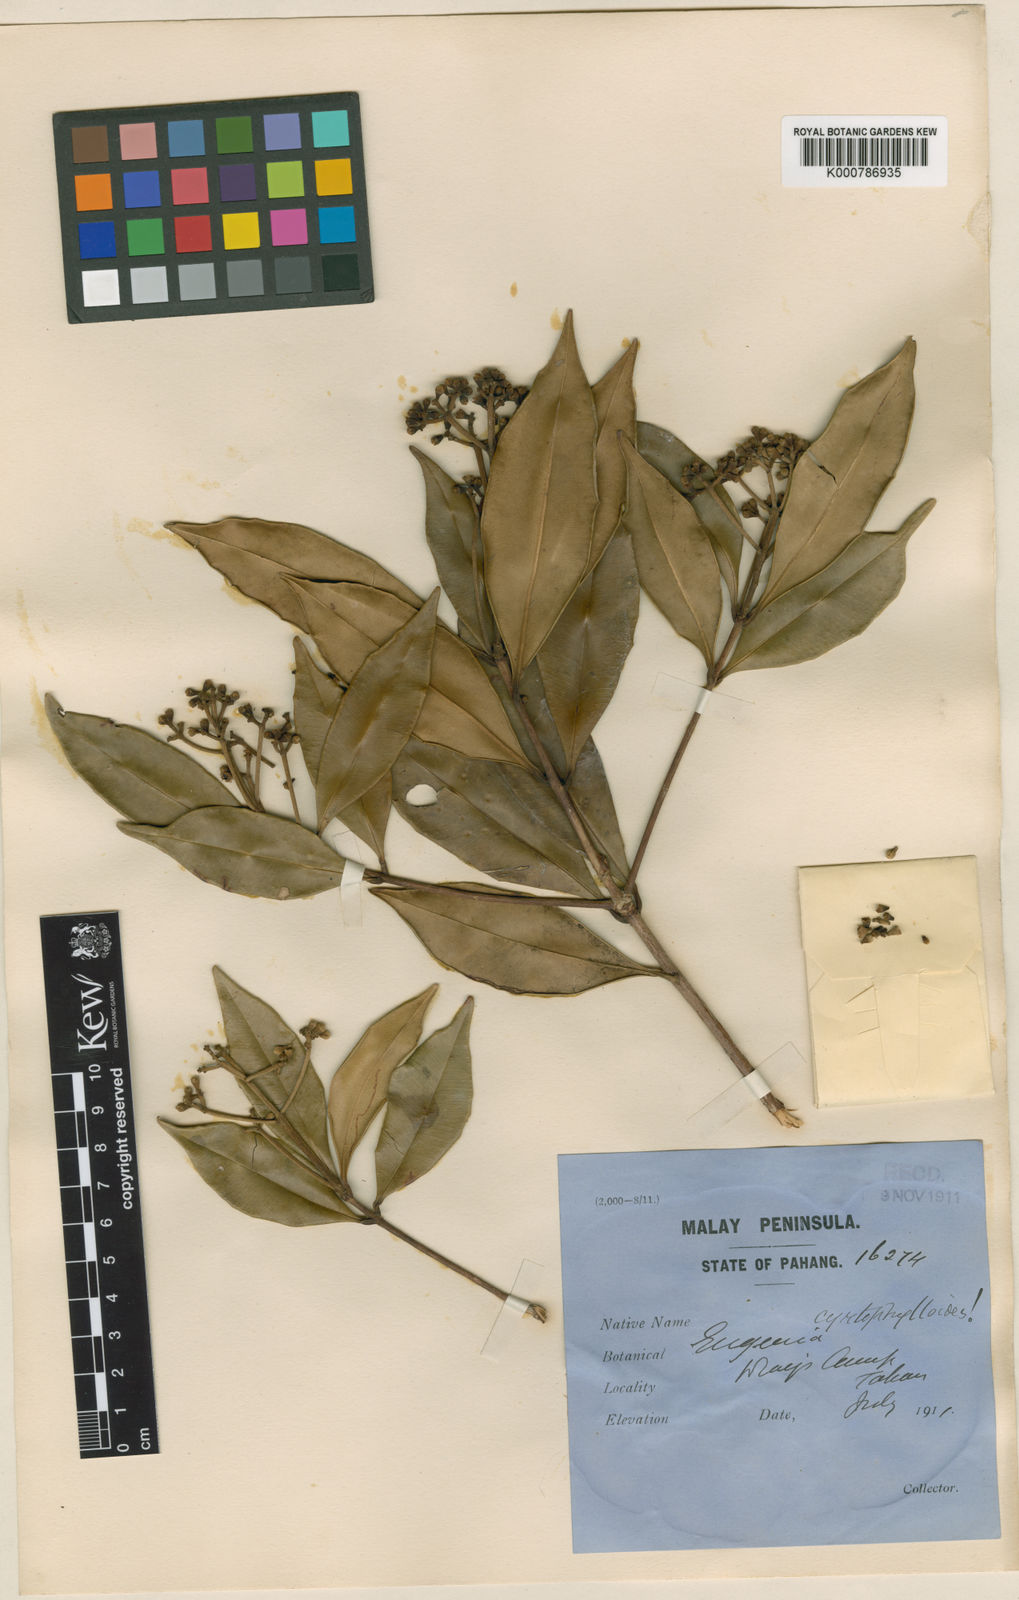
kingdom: Plantae
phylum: Tracheophyta
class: Magnoliopsida
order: Myrtales
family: Myrtaceae
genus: Syzygium
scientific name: Syzygium cyrtophylloides
